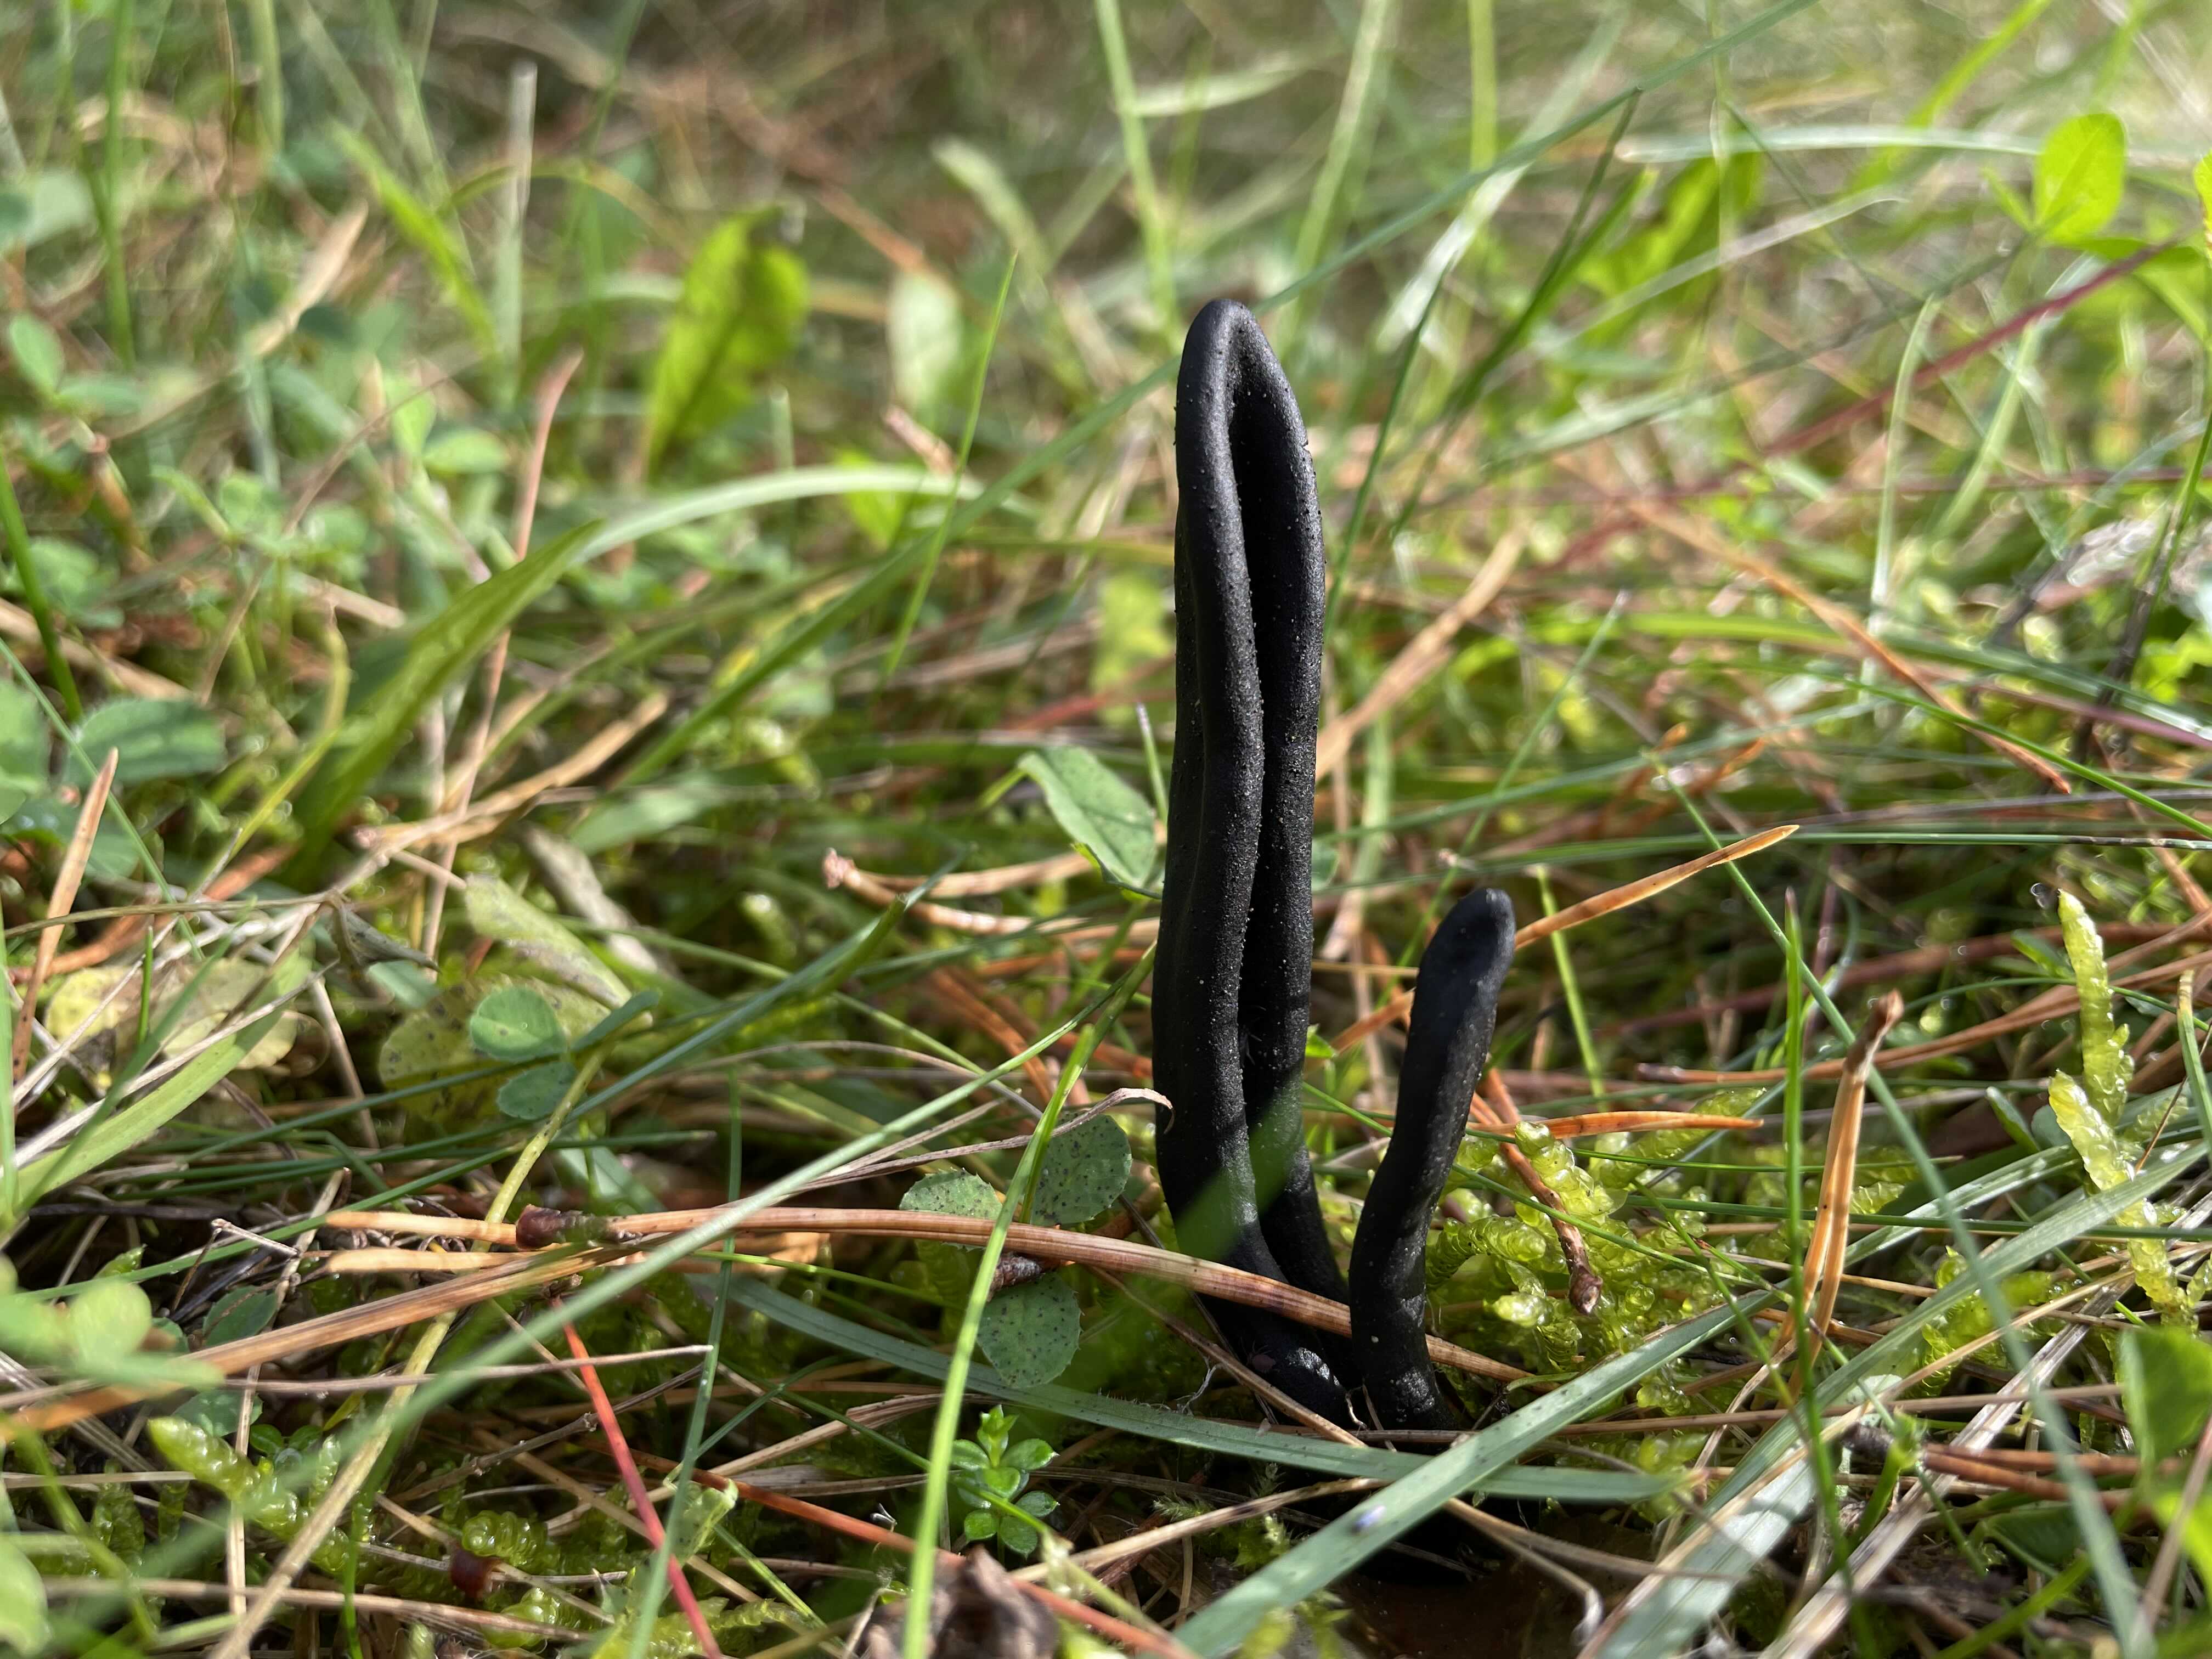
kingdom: Fungi
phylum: Ascomycota
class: Geoglossomycetes
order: Geoglossales
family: Geoglossaceae
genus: Geoglossum
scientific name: Geoglossum
